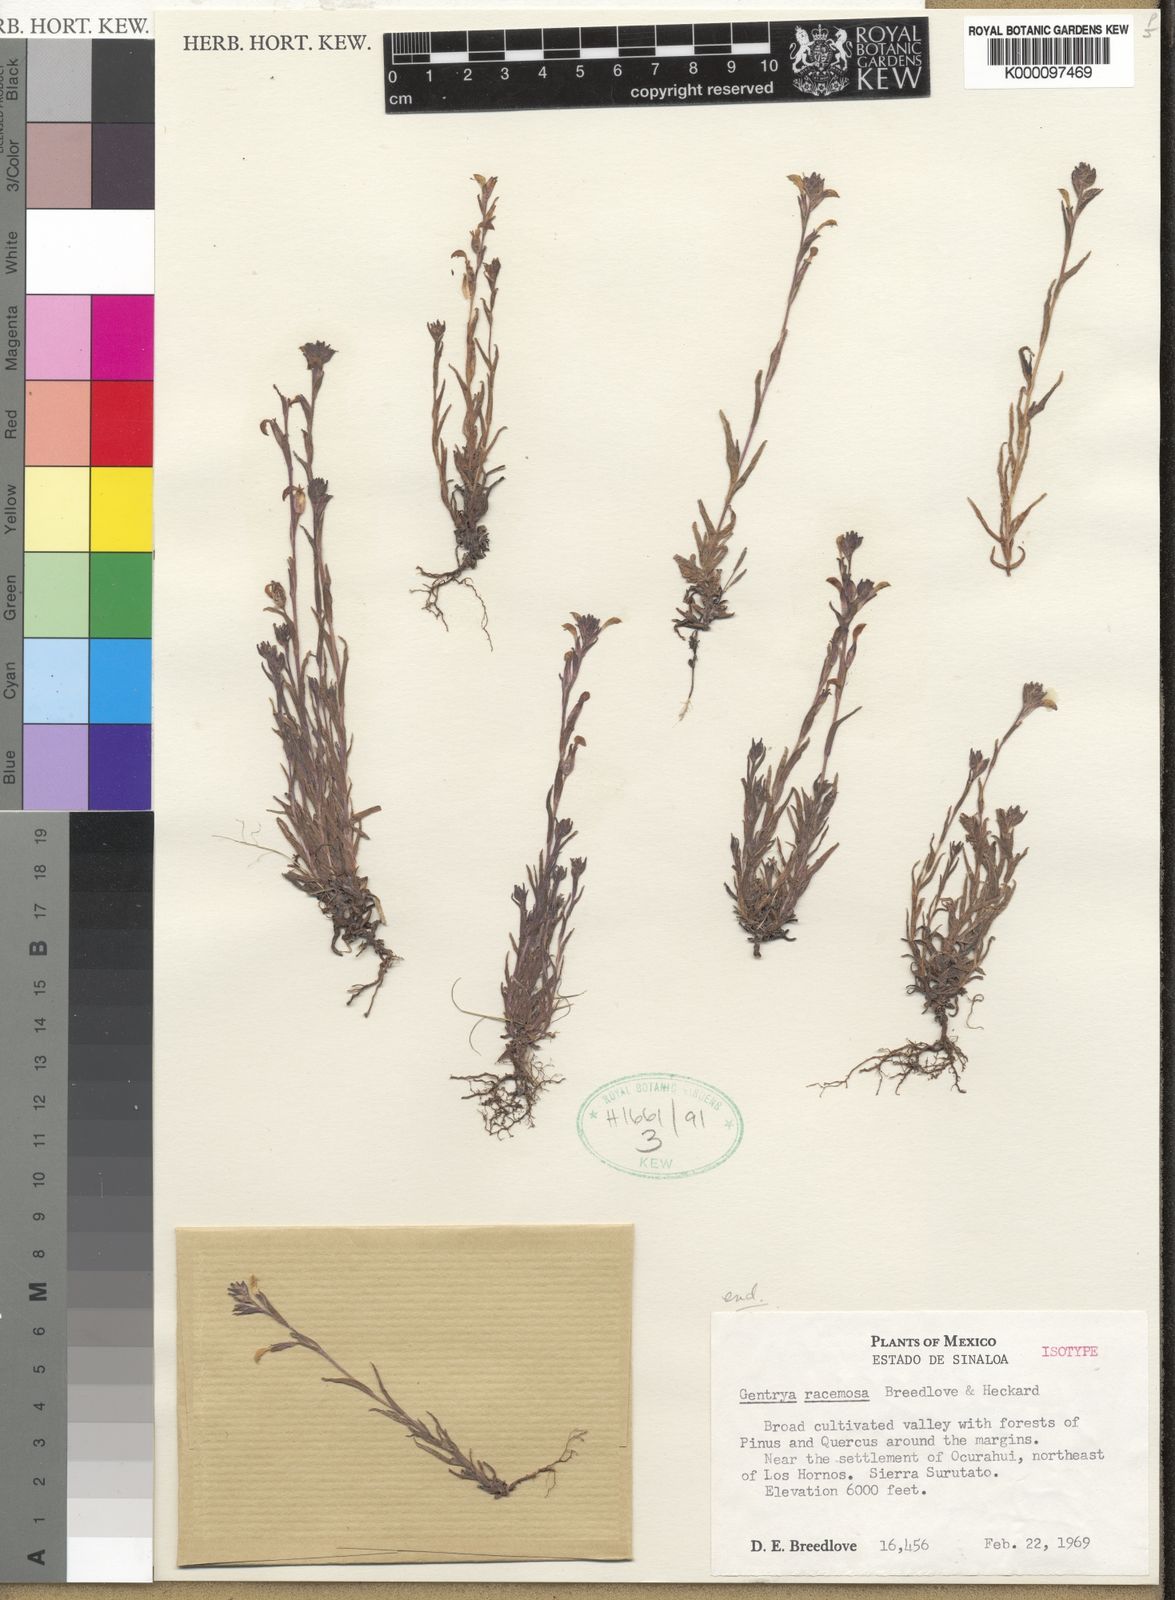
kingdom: Plantae
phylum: Tracheophyta
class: Magnoliopsida
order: Lamiales
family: Orobanchaceae
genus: Castilleja
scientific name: Castilleja racemosa
